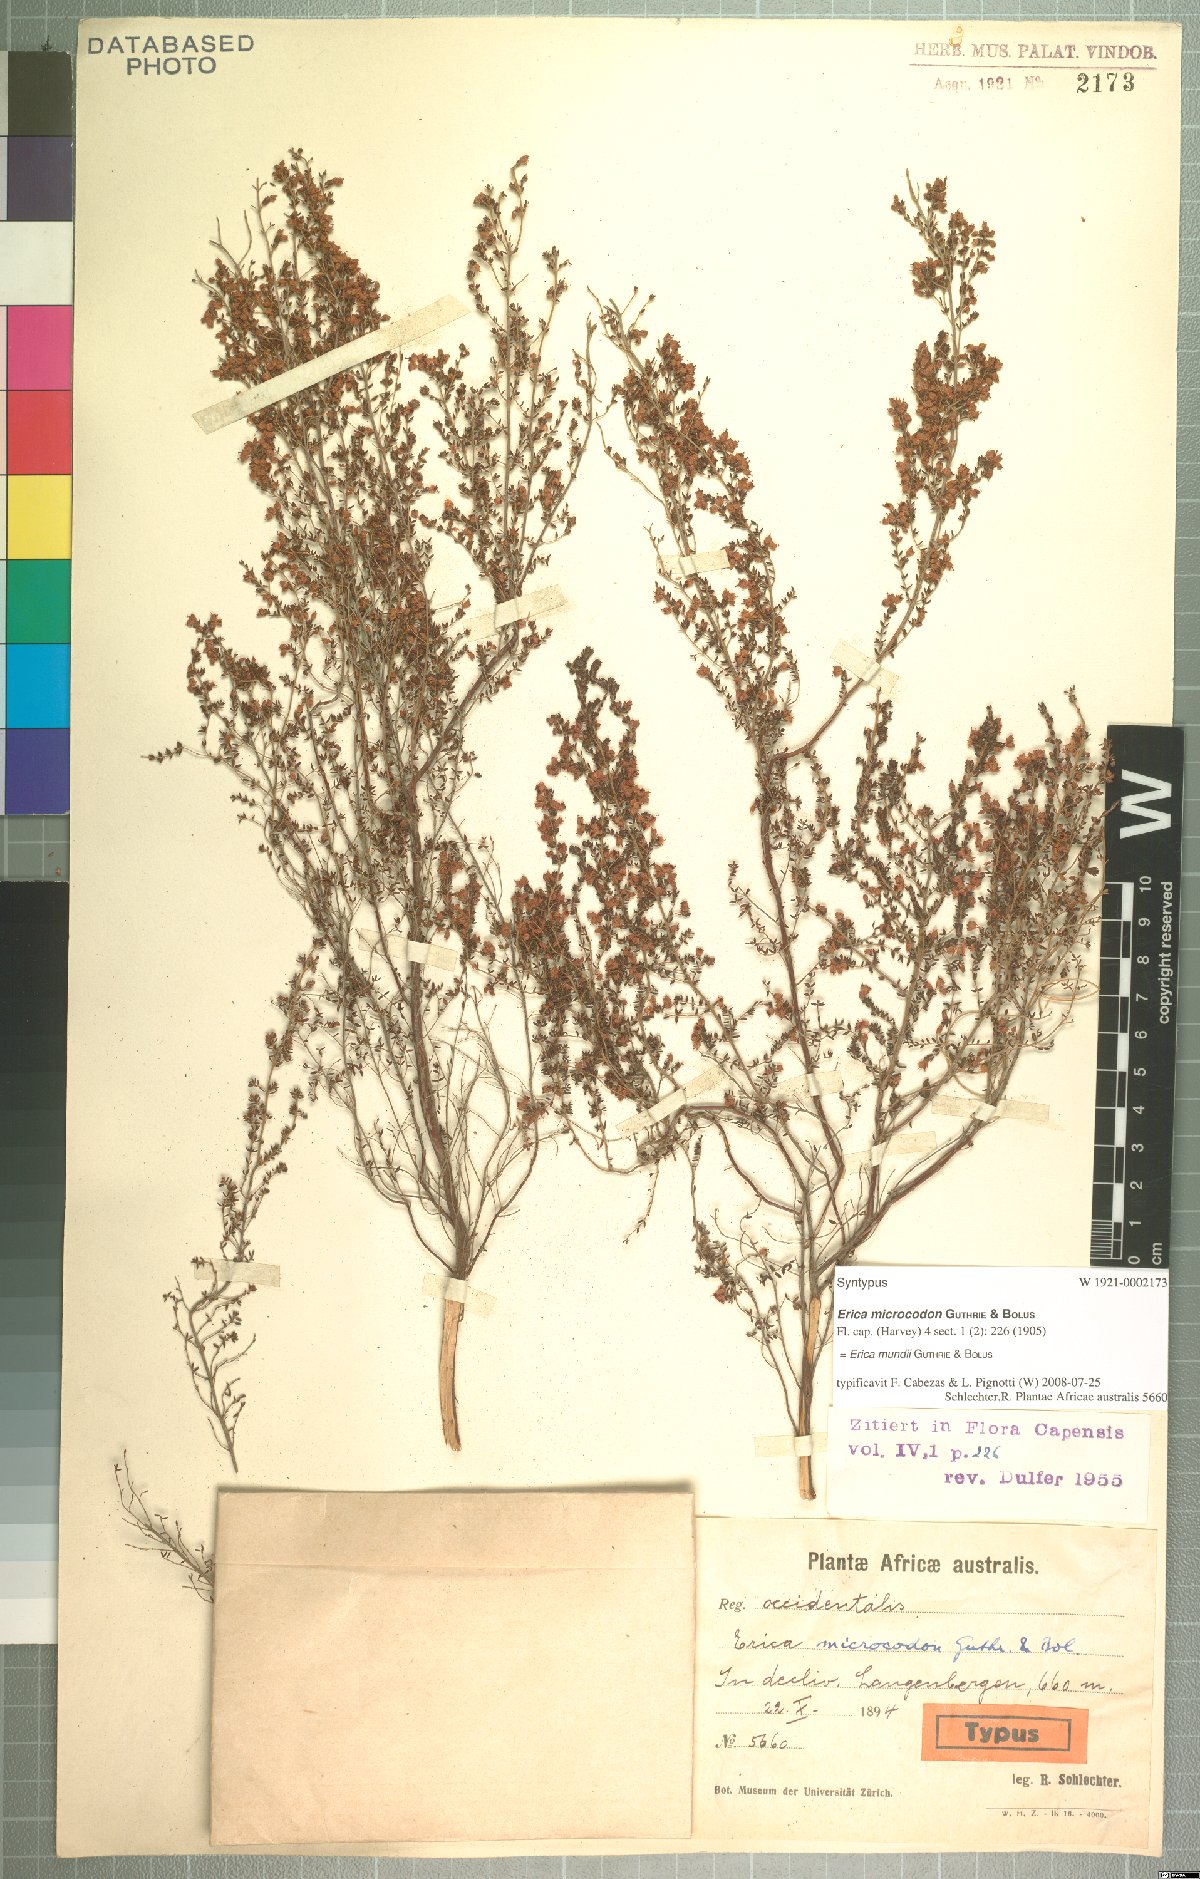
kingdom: Plantae
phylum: Tracheophyta
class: Magnoliopsida
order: Ericales
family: Ericaceae
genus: Erica
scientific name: Erica mundii
